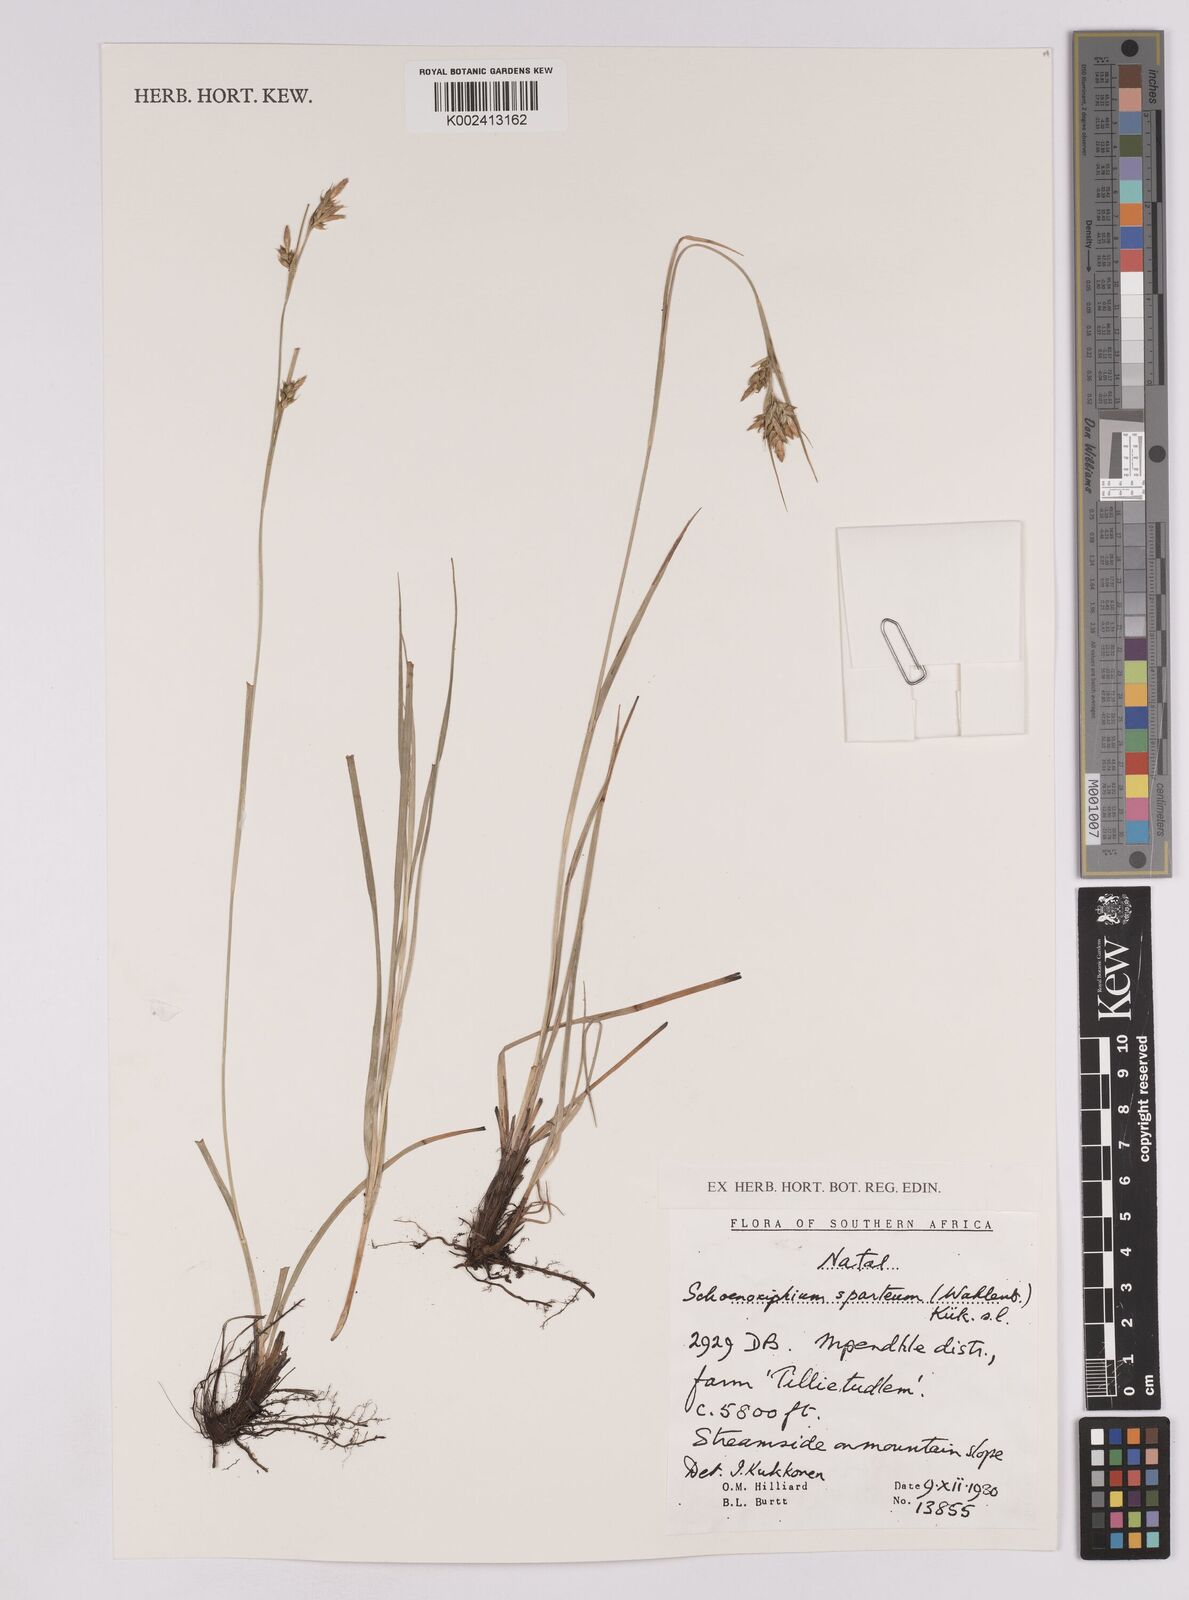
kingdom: Plantae
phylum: Tracheophyta
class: Liliopsida
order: Poales
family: Cyperaceae
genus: Carex
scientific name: Carex spartea
